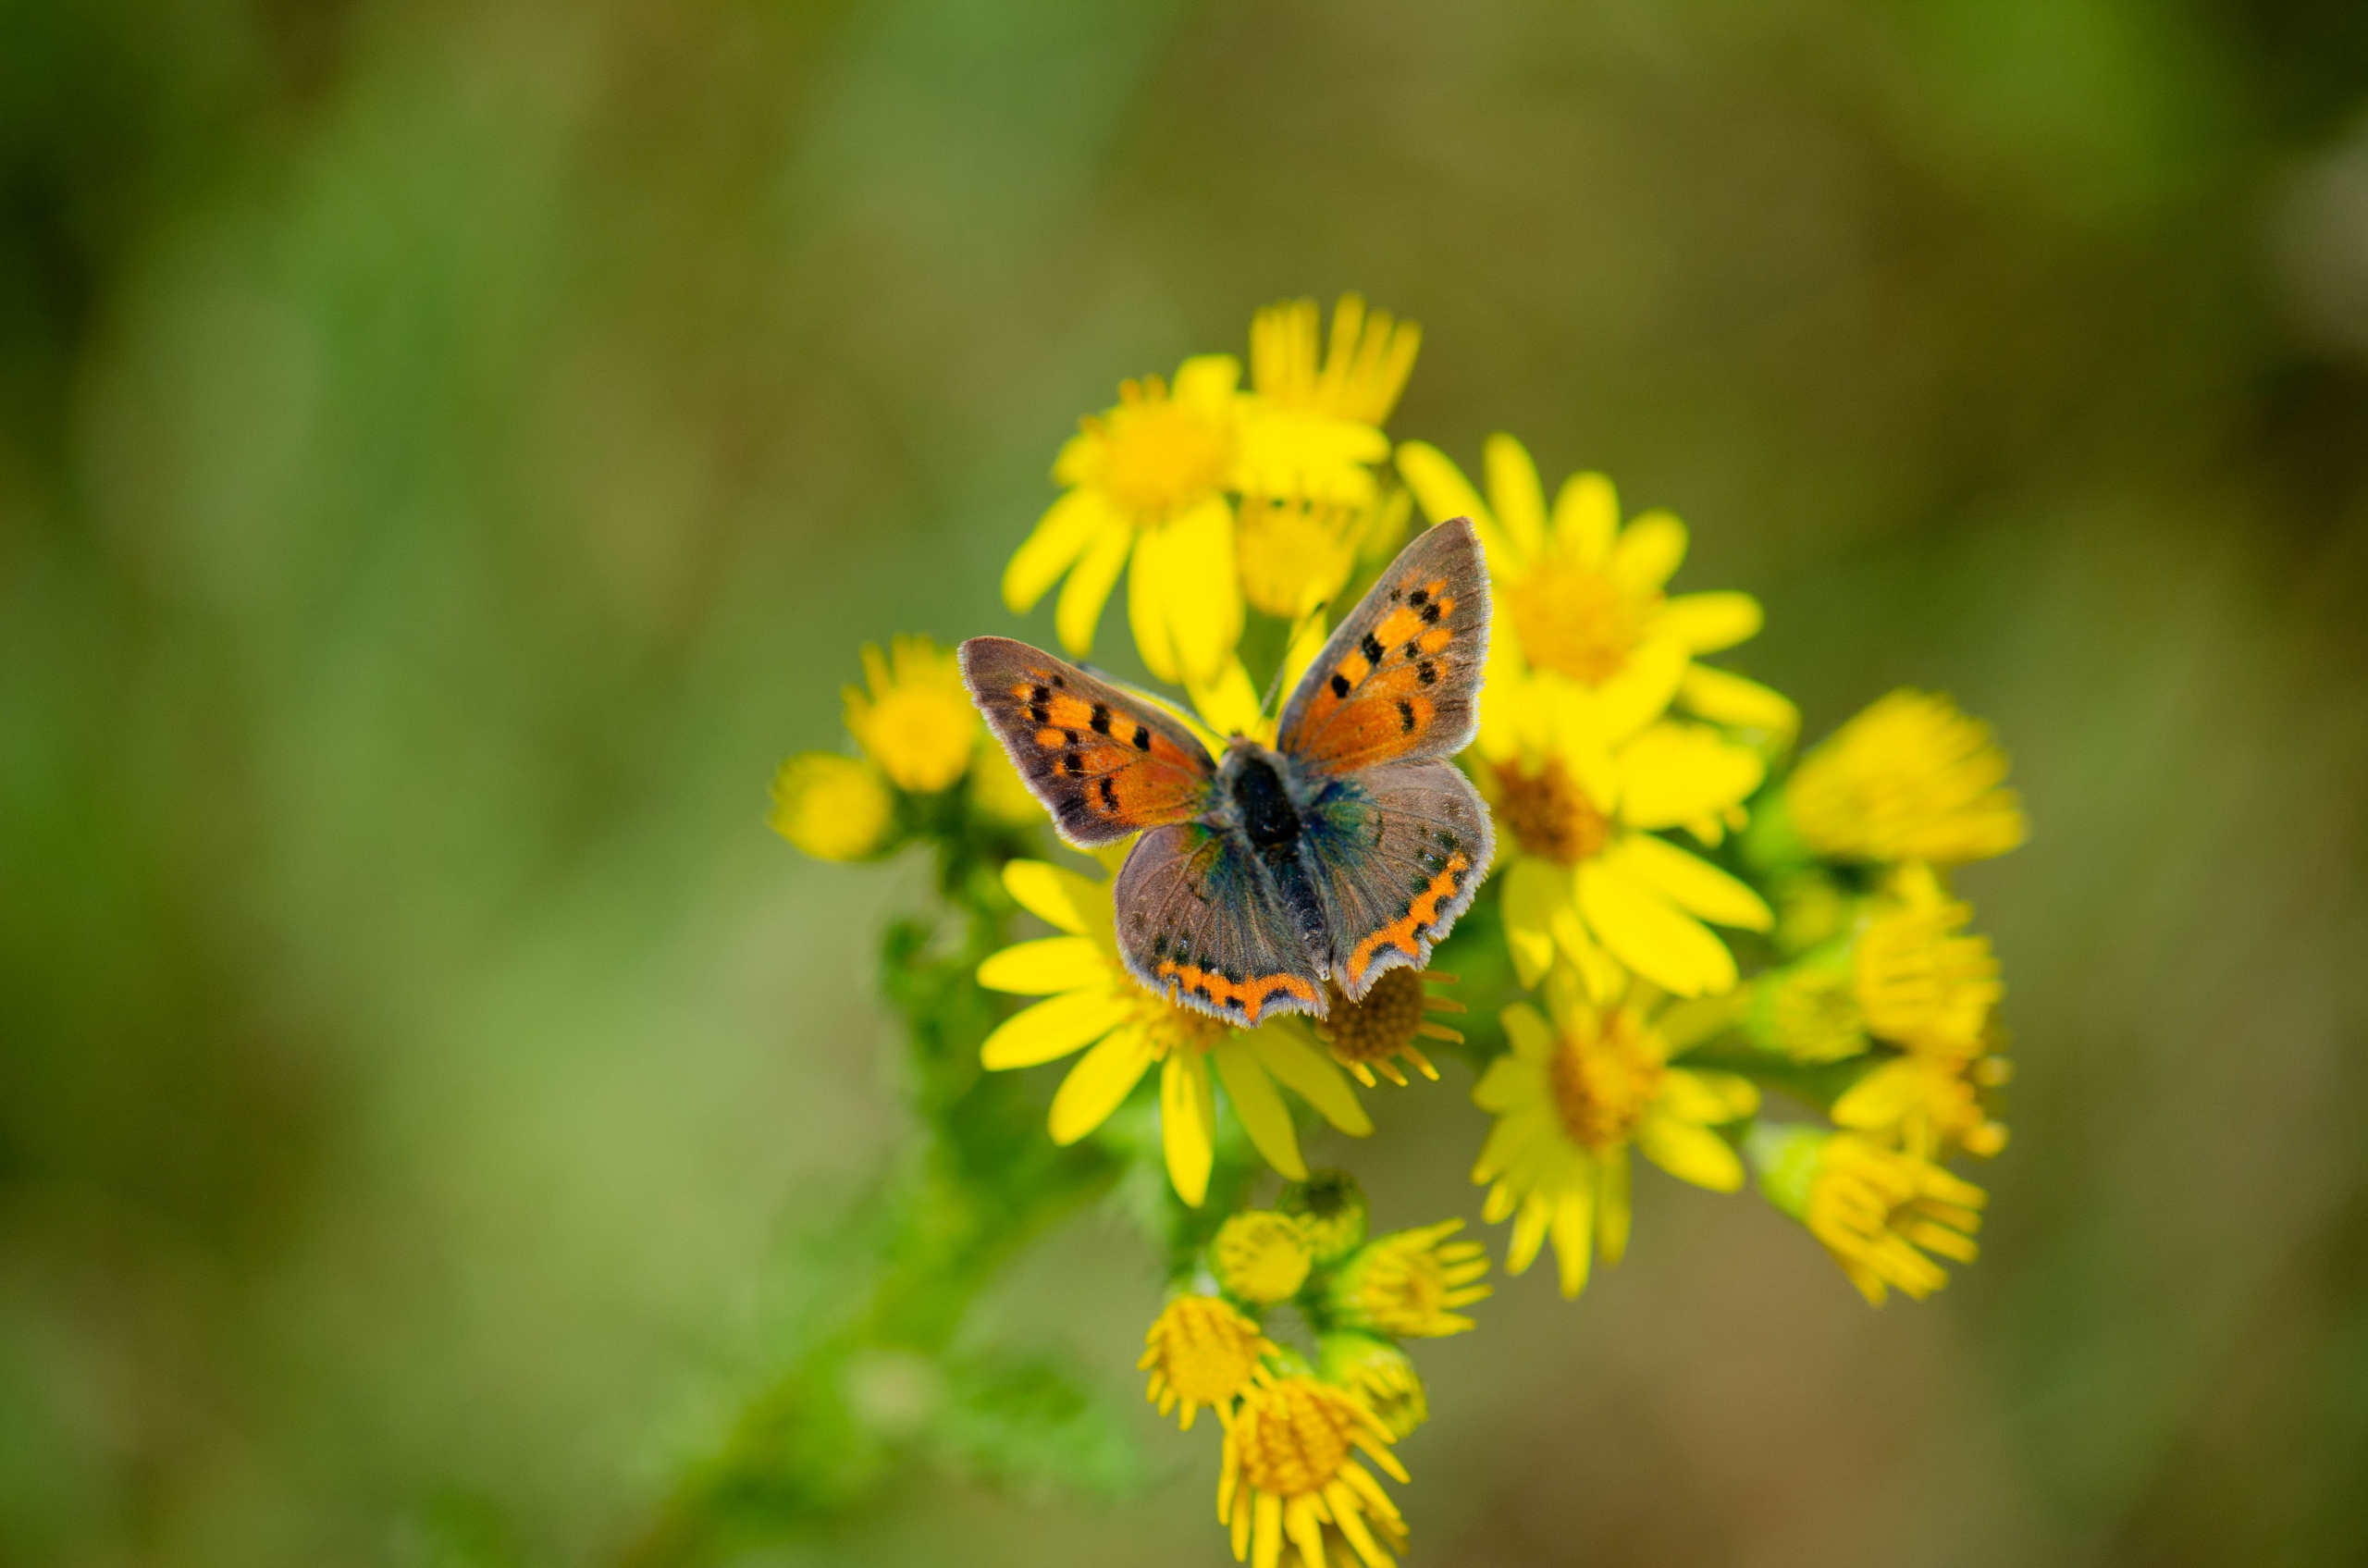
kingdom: Animalia
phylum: Arthropoda
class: Insecta
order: Lepidoptera
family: Lycaenidae
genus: Lycaena
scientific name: Lycaena phlaeas
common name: Lille ildfugl
